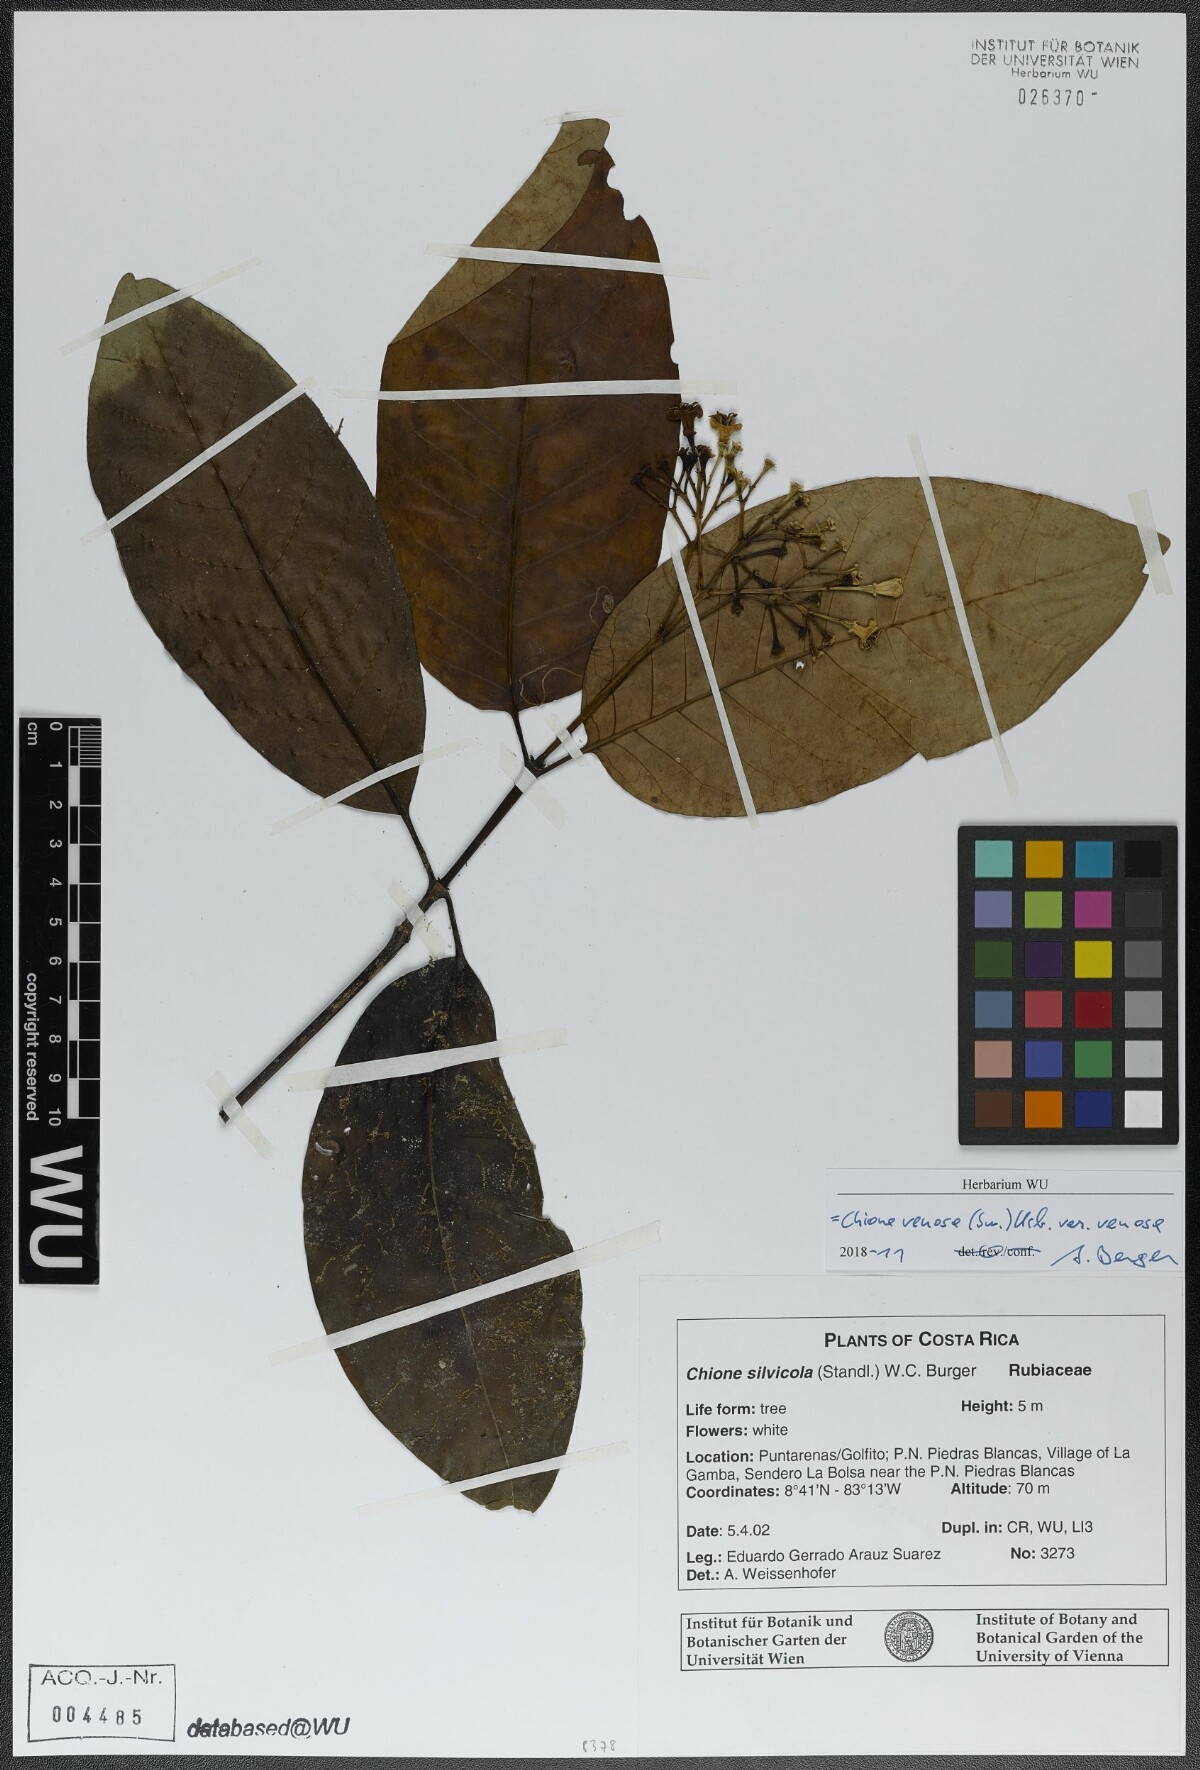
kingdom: Plantae
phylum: Tracheophyta
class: Magnoliopsida
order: Gentianales
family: Rubiaceae
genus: Chione
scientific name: Chione venosa
